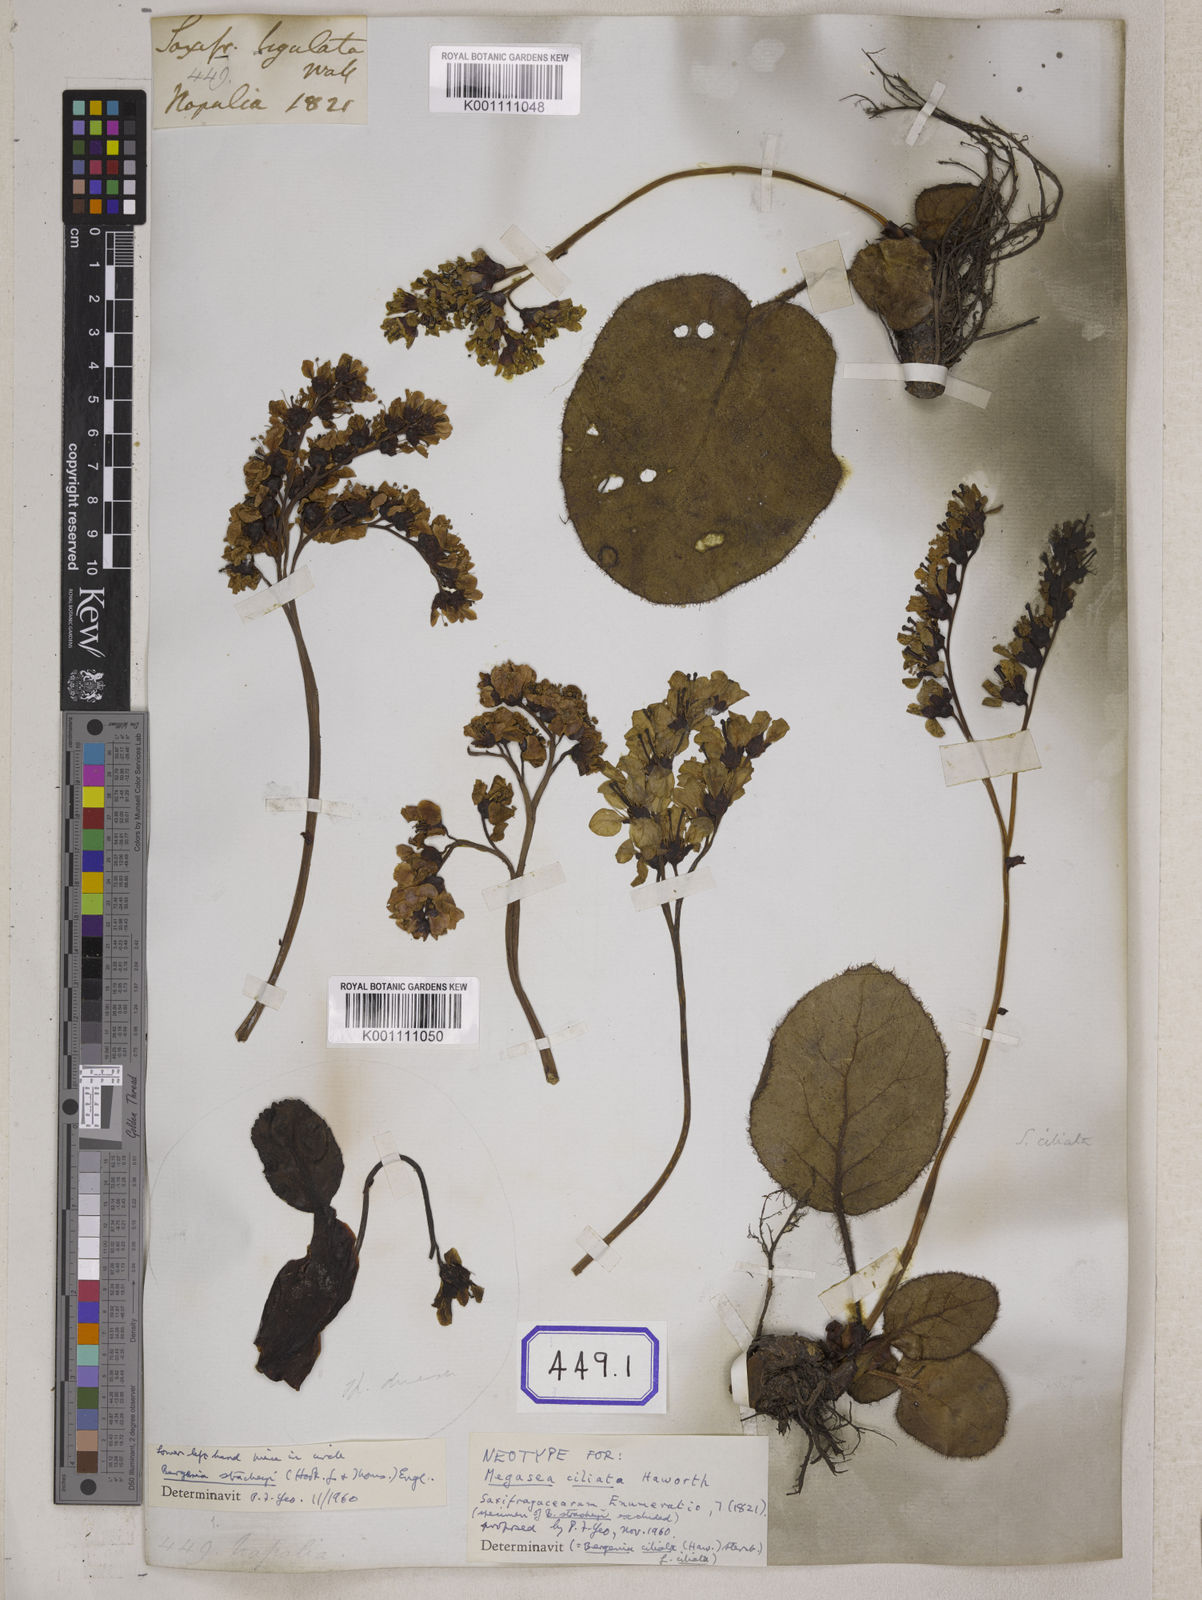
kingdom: Plantae
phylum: Tracheophyta
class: Magnoliopsida
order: Saxifragales
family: Saxifragaceae
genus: Bergenia
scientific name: Bergenia pacumbis
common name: Chinese bergenia
